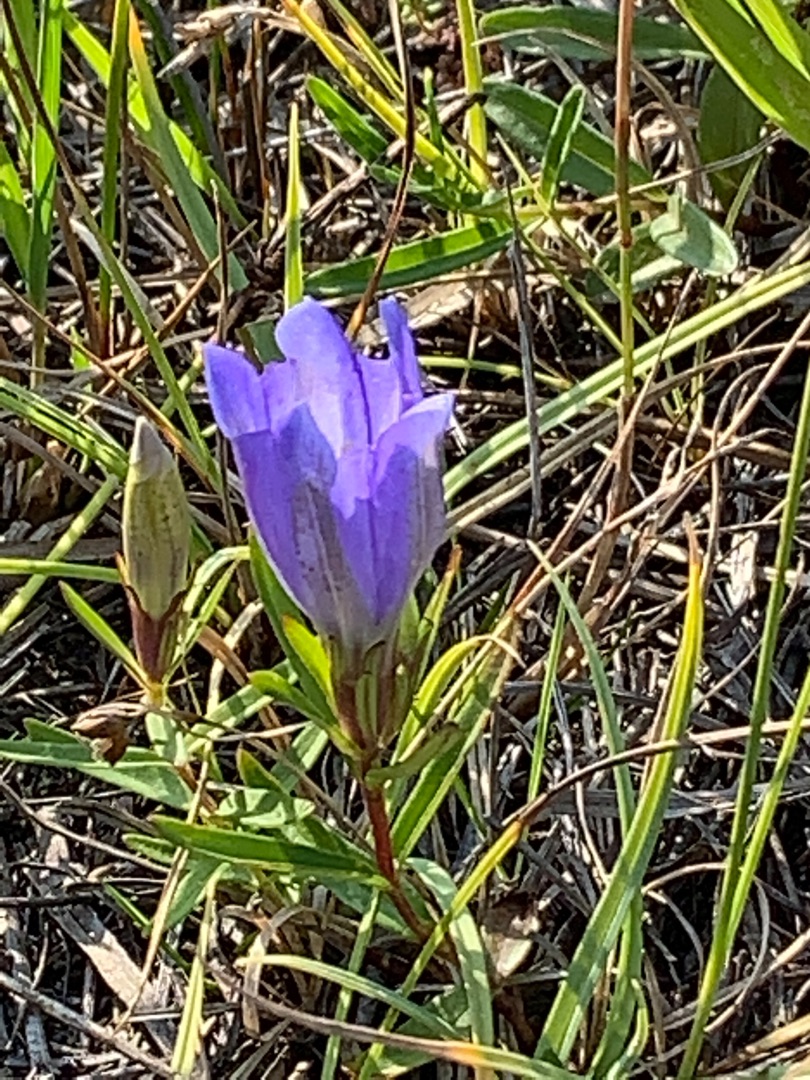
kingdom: Plantae
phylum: Tracheophyta
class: Magnoliopsida
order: Gentianales
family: Gentianaceae
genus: Gentiana
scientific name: Gentiana pneumonanthe
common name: Klokke-ensian
